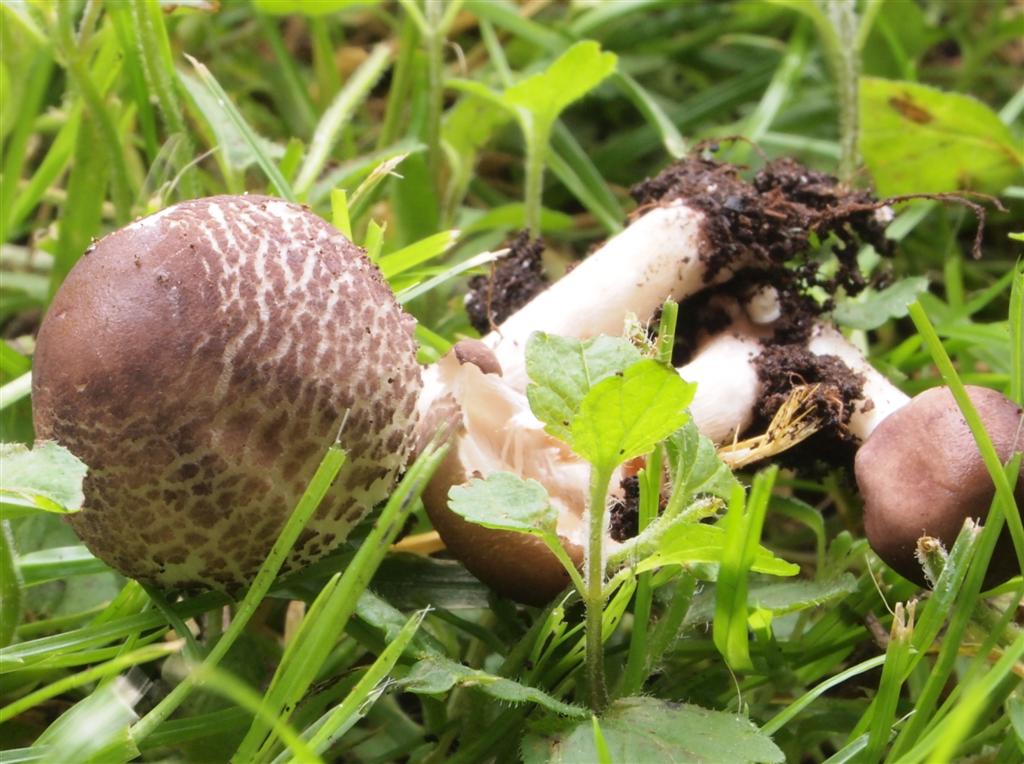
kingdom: Fungi
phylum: Basidiomycota
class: Agaricomycetes
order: Agaricales
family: Agaricaceae
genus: Lepiota
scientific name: Lepiota lilacea
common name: lillabrun parasolhat
